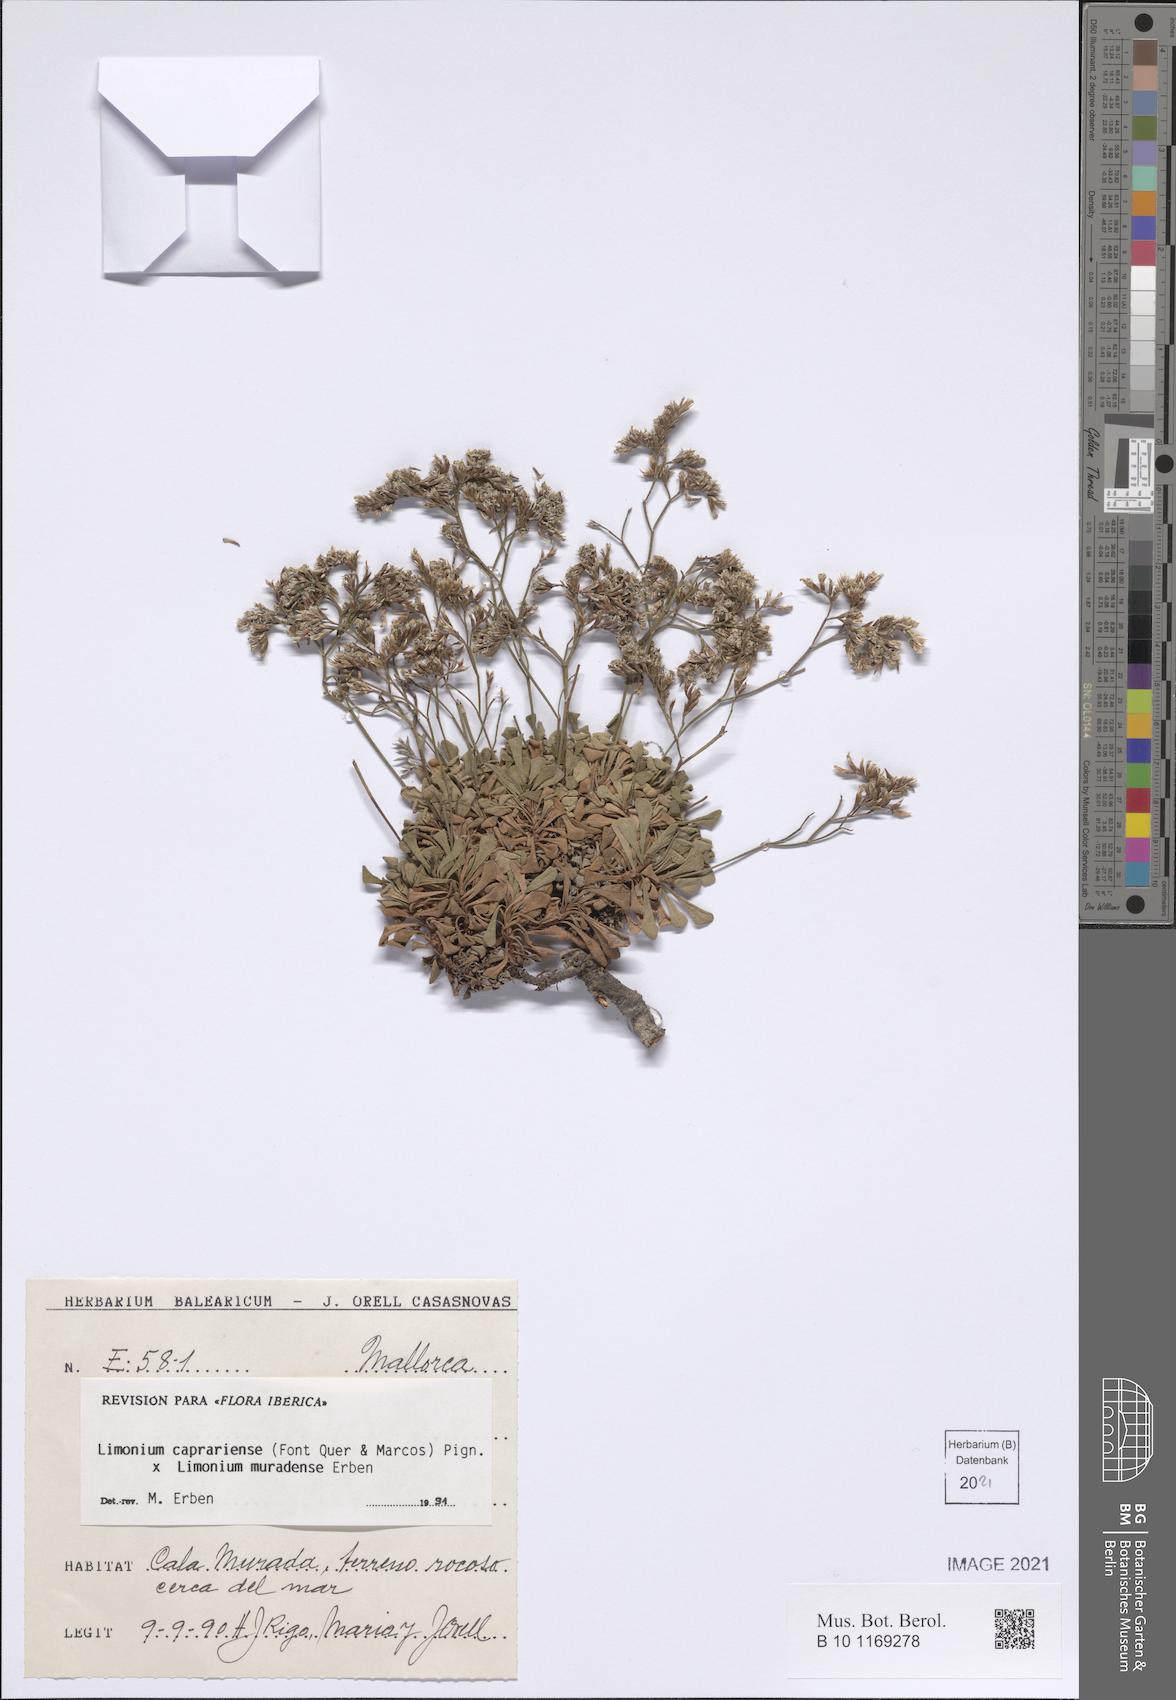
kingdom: Plantae
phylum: Tracheophyta
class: Magnoliopsida
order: Caryophyllales
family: Plumbaginaceae
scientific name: Plumbaginaceae
